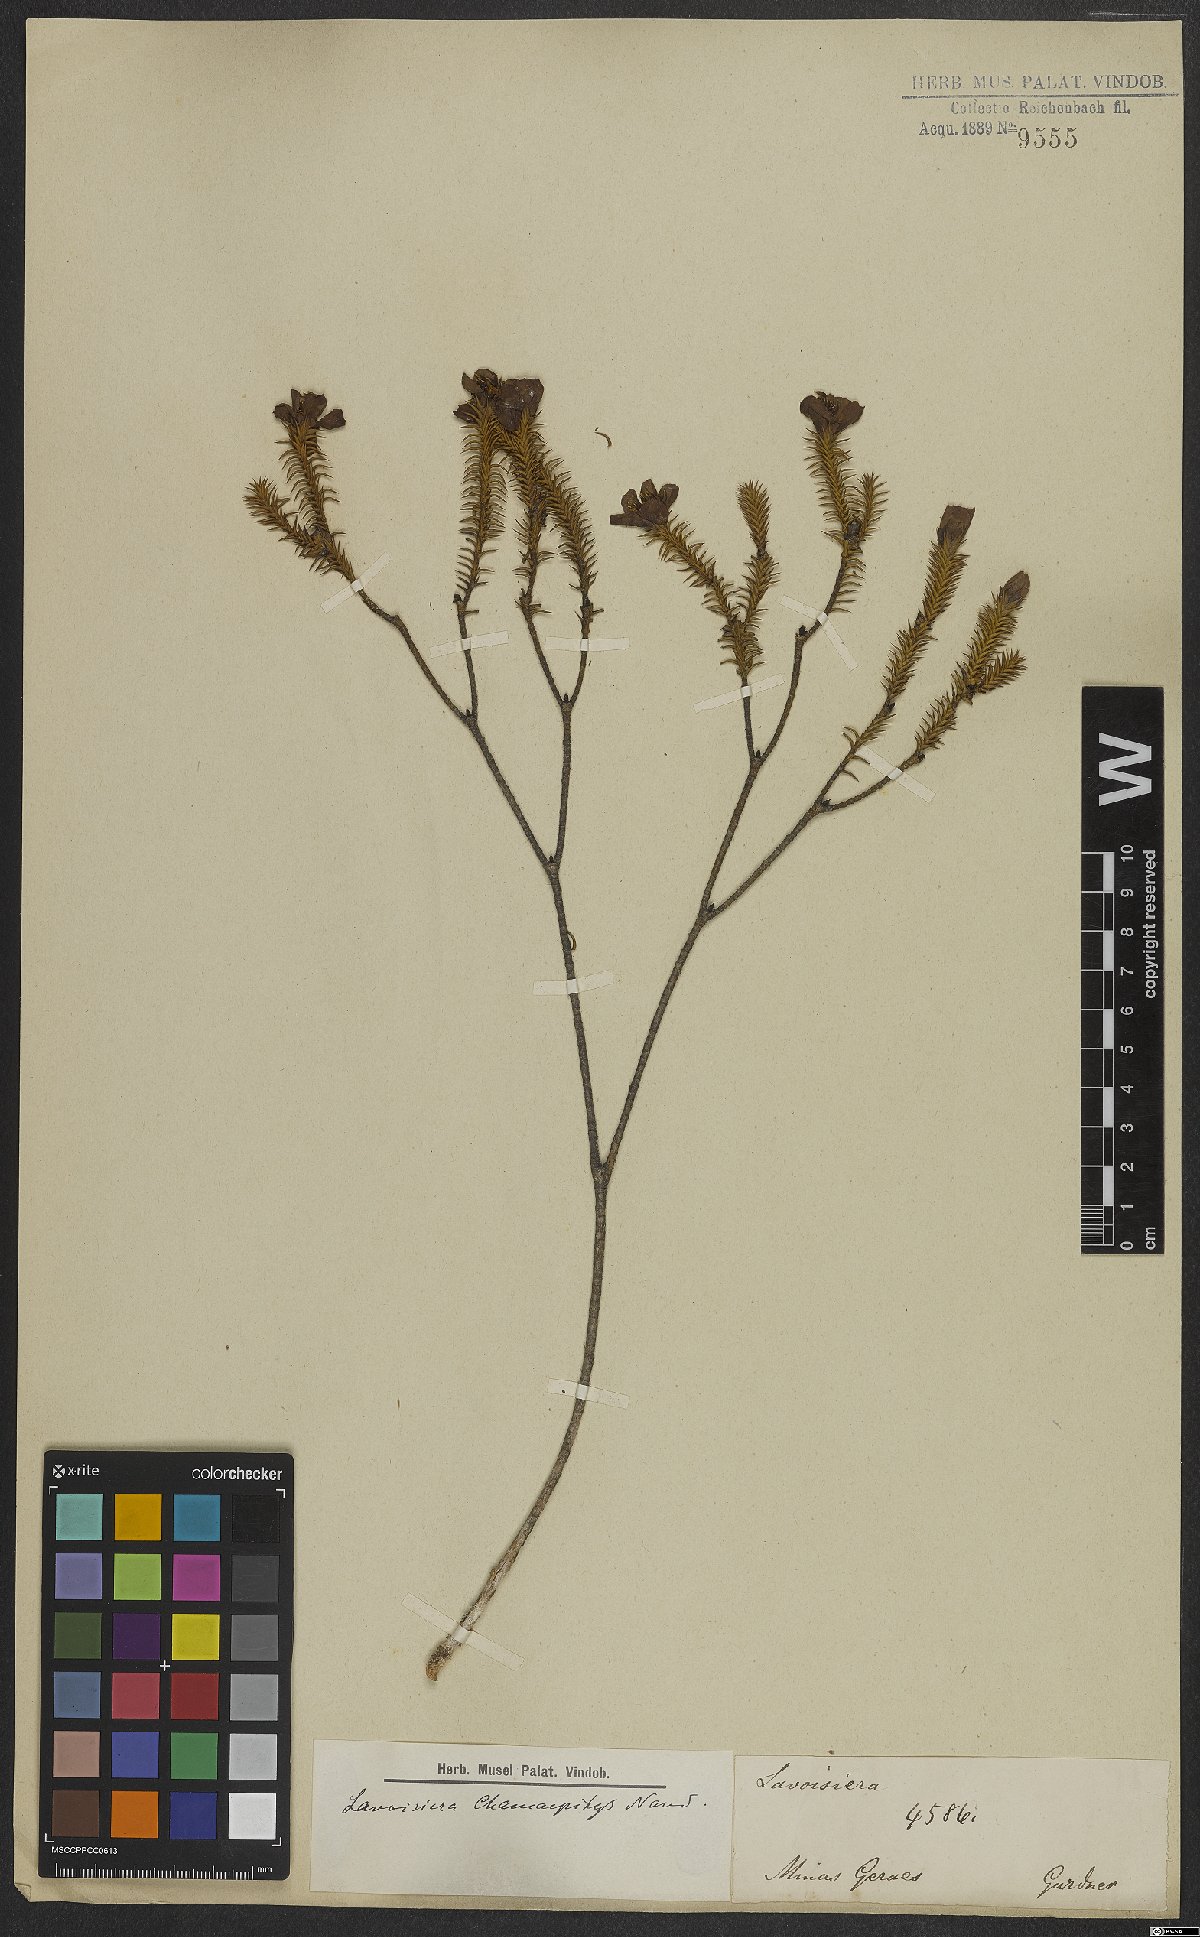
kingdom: Plantae
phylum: Tracheophyta
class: Magnoliopsida
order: Myrtales
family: Melastomataceae
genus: Microlicia
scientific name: Microlicia hilairei
